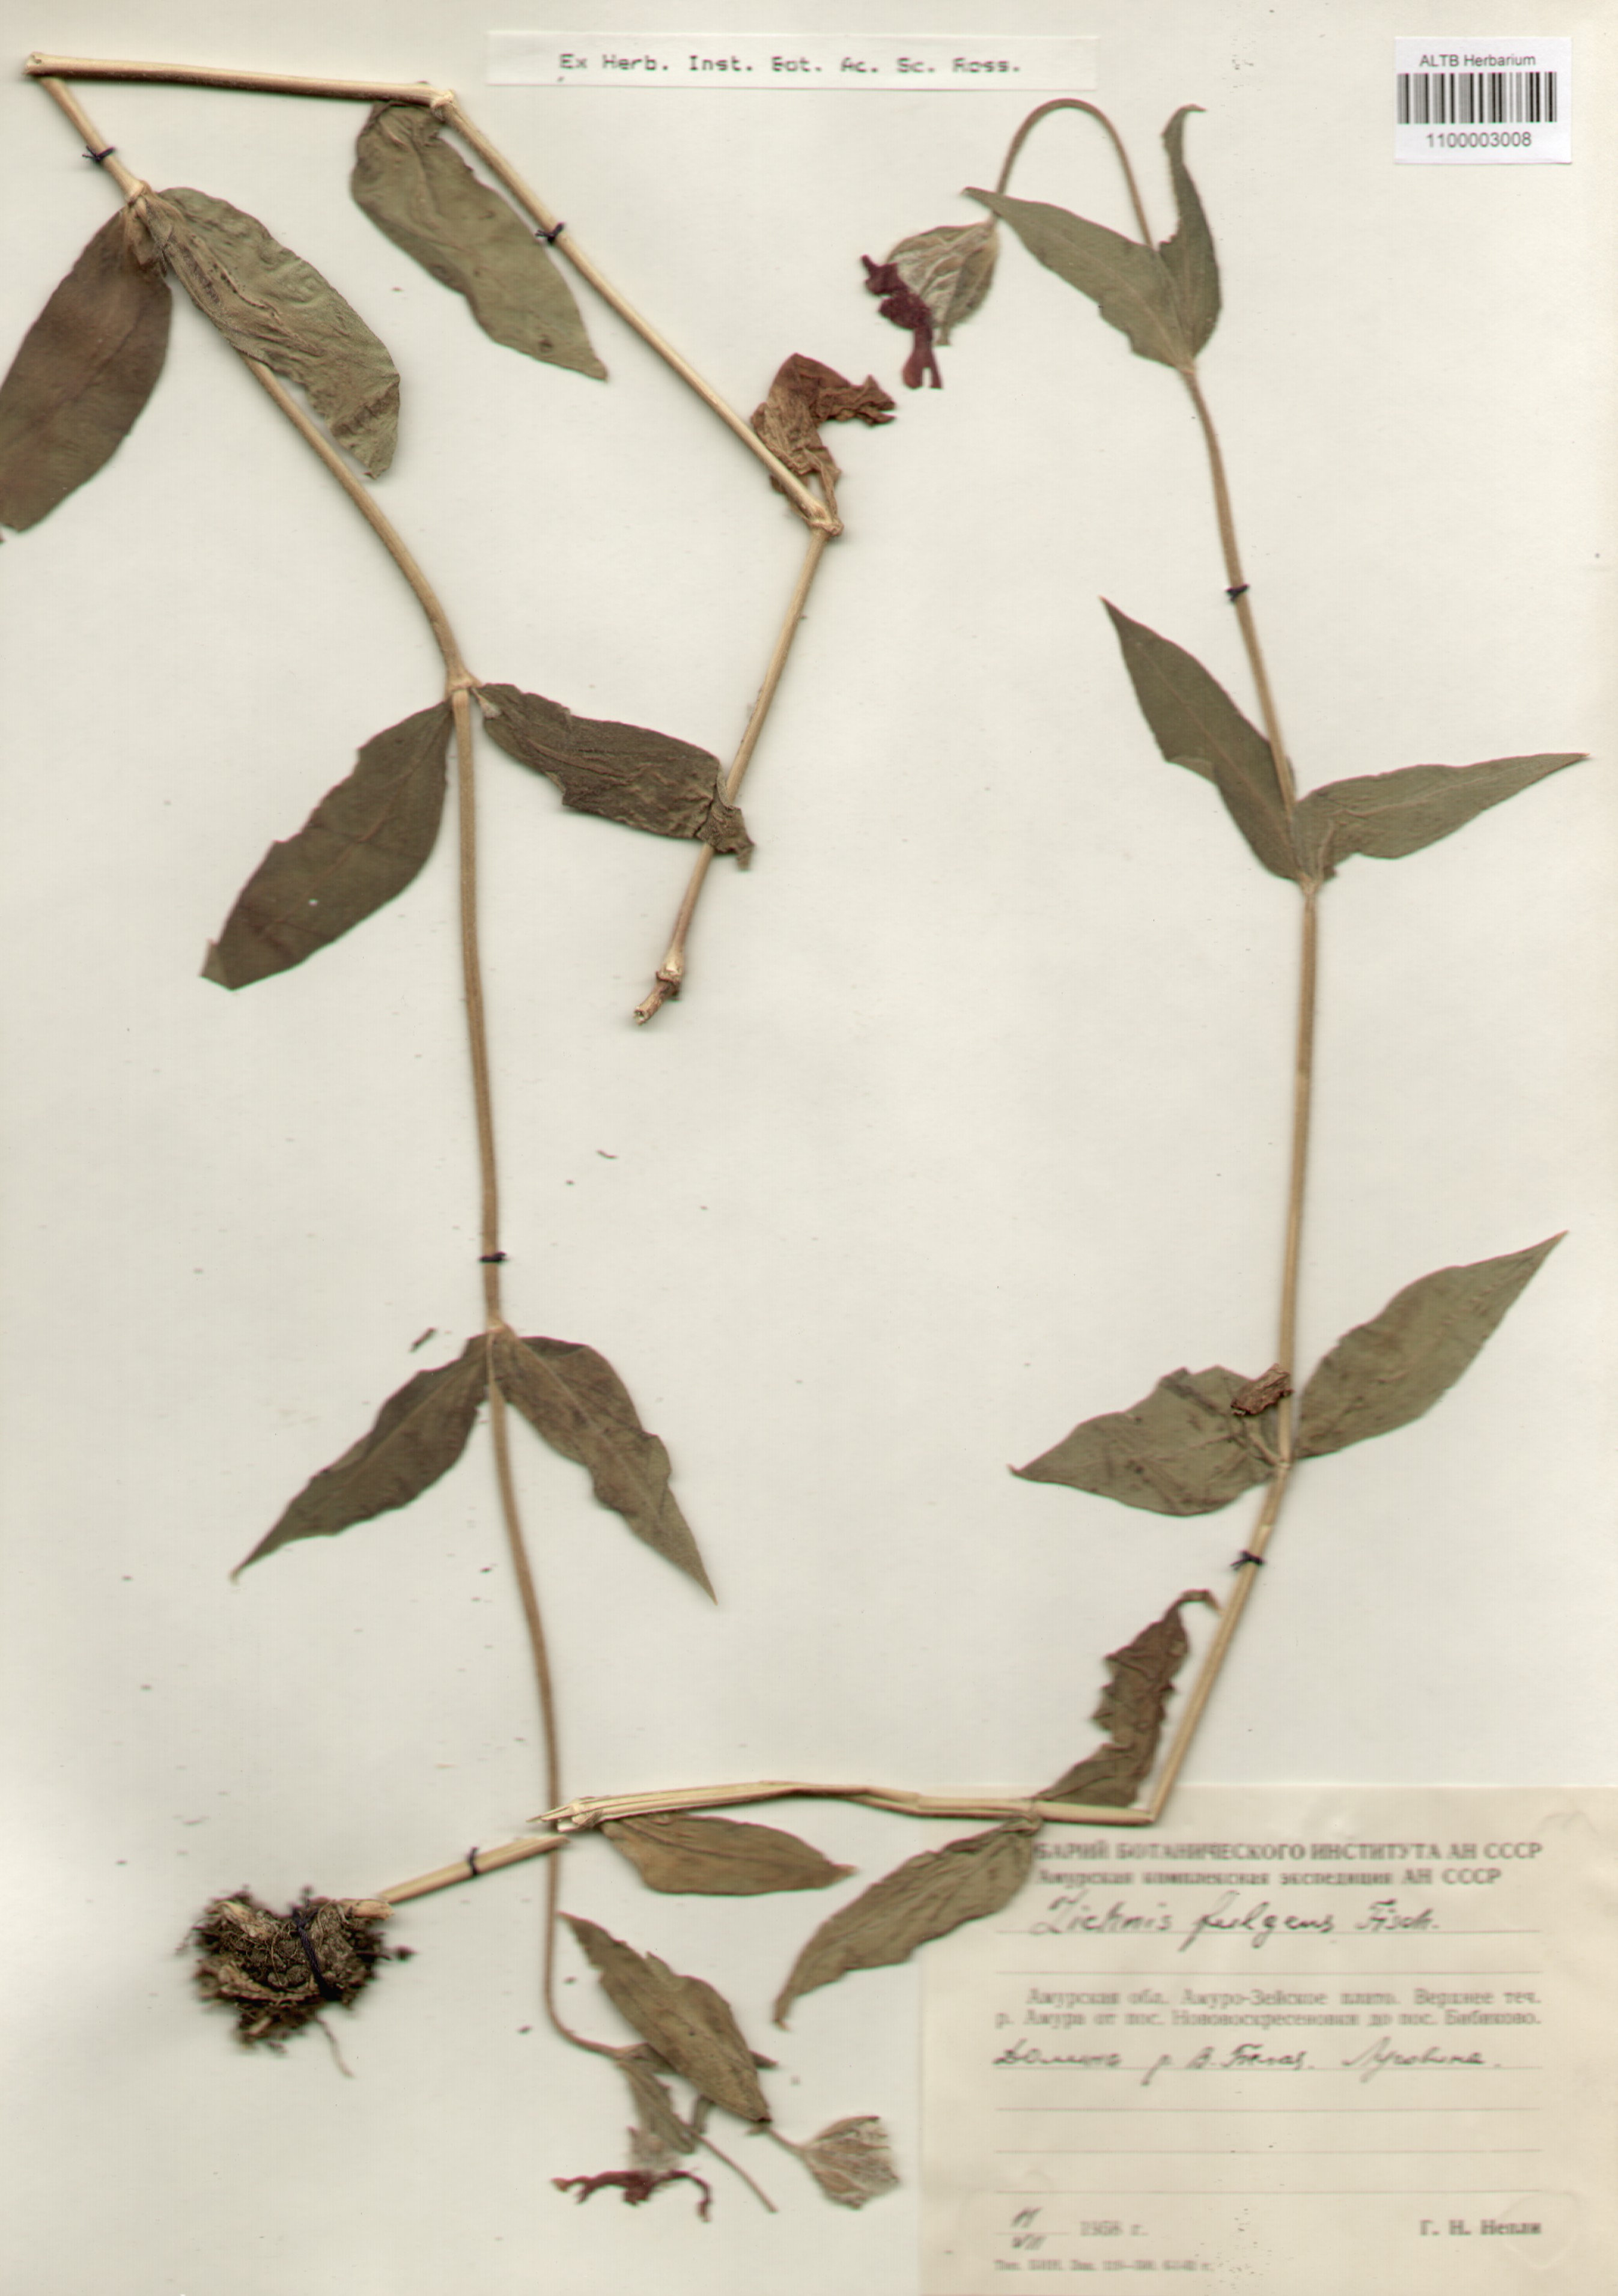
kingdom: Plantae
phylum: Tracheophyta
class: Magnoliopsida
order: Caryophyllales
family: Caryophyllaceae
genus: Silene
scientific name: Silene banksia
